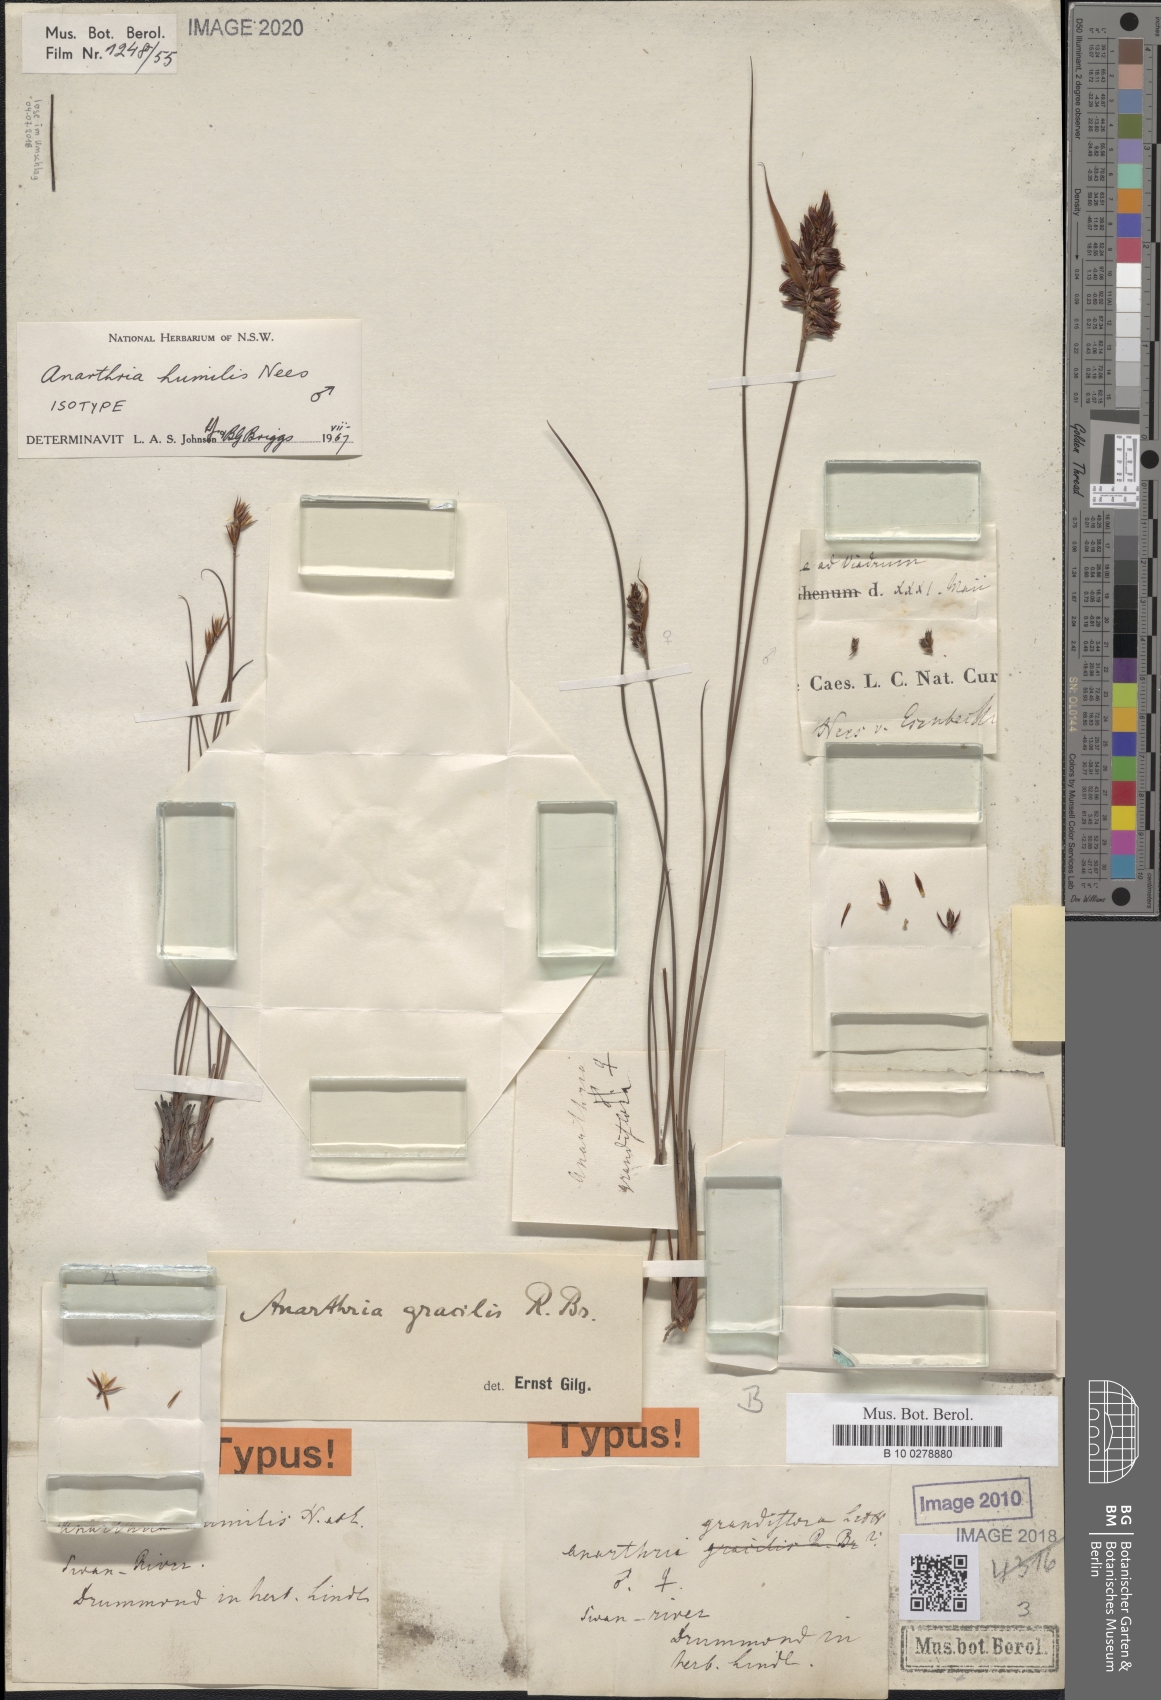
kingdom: Plantae
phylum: Tracheophyta
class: Liliopsida
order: Poales
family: Restionaceae
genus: Anarthria
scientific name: Anarthria gracilis
